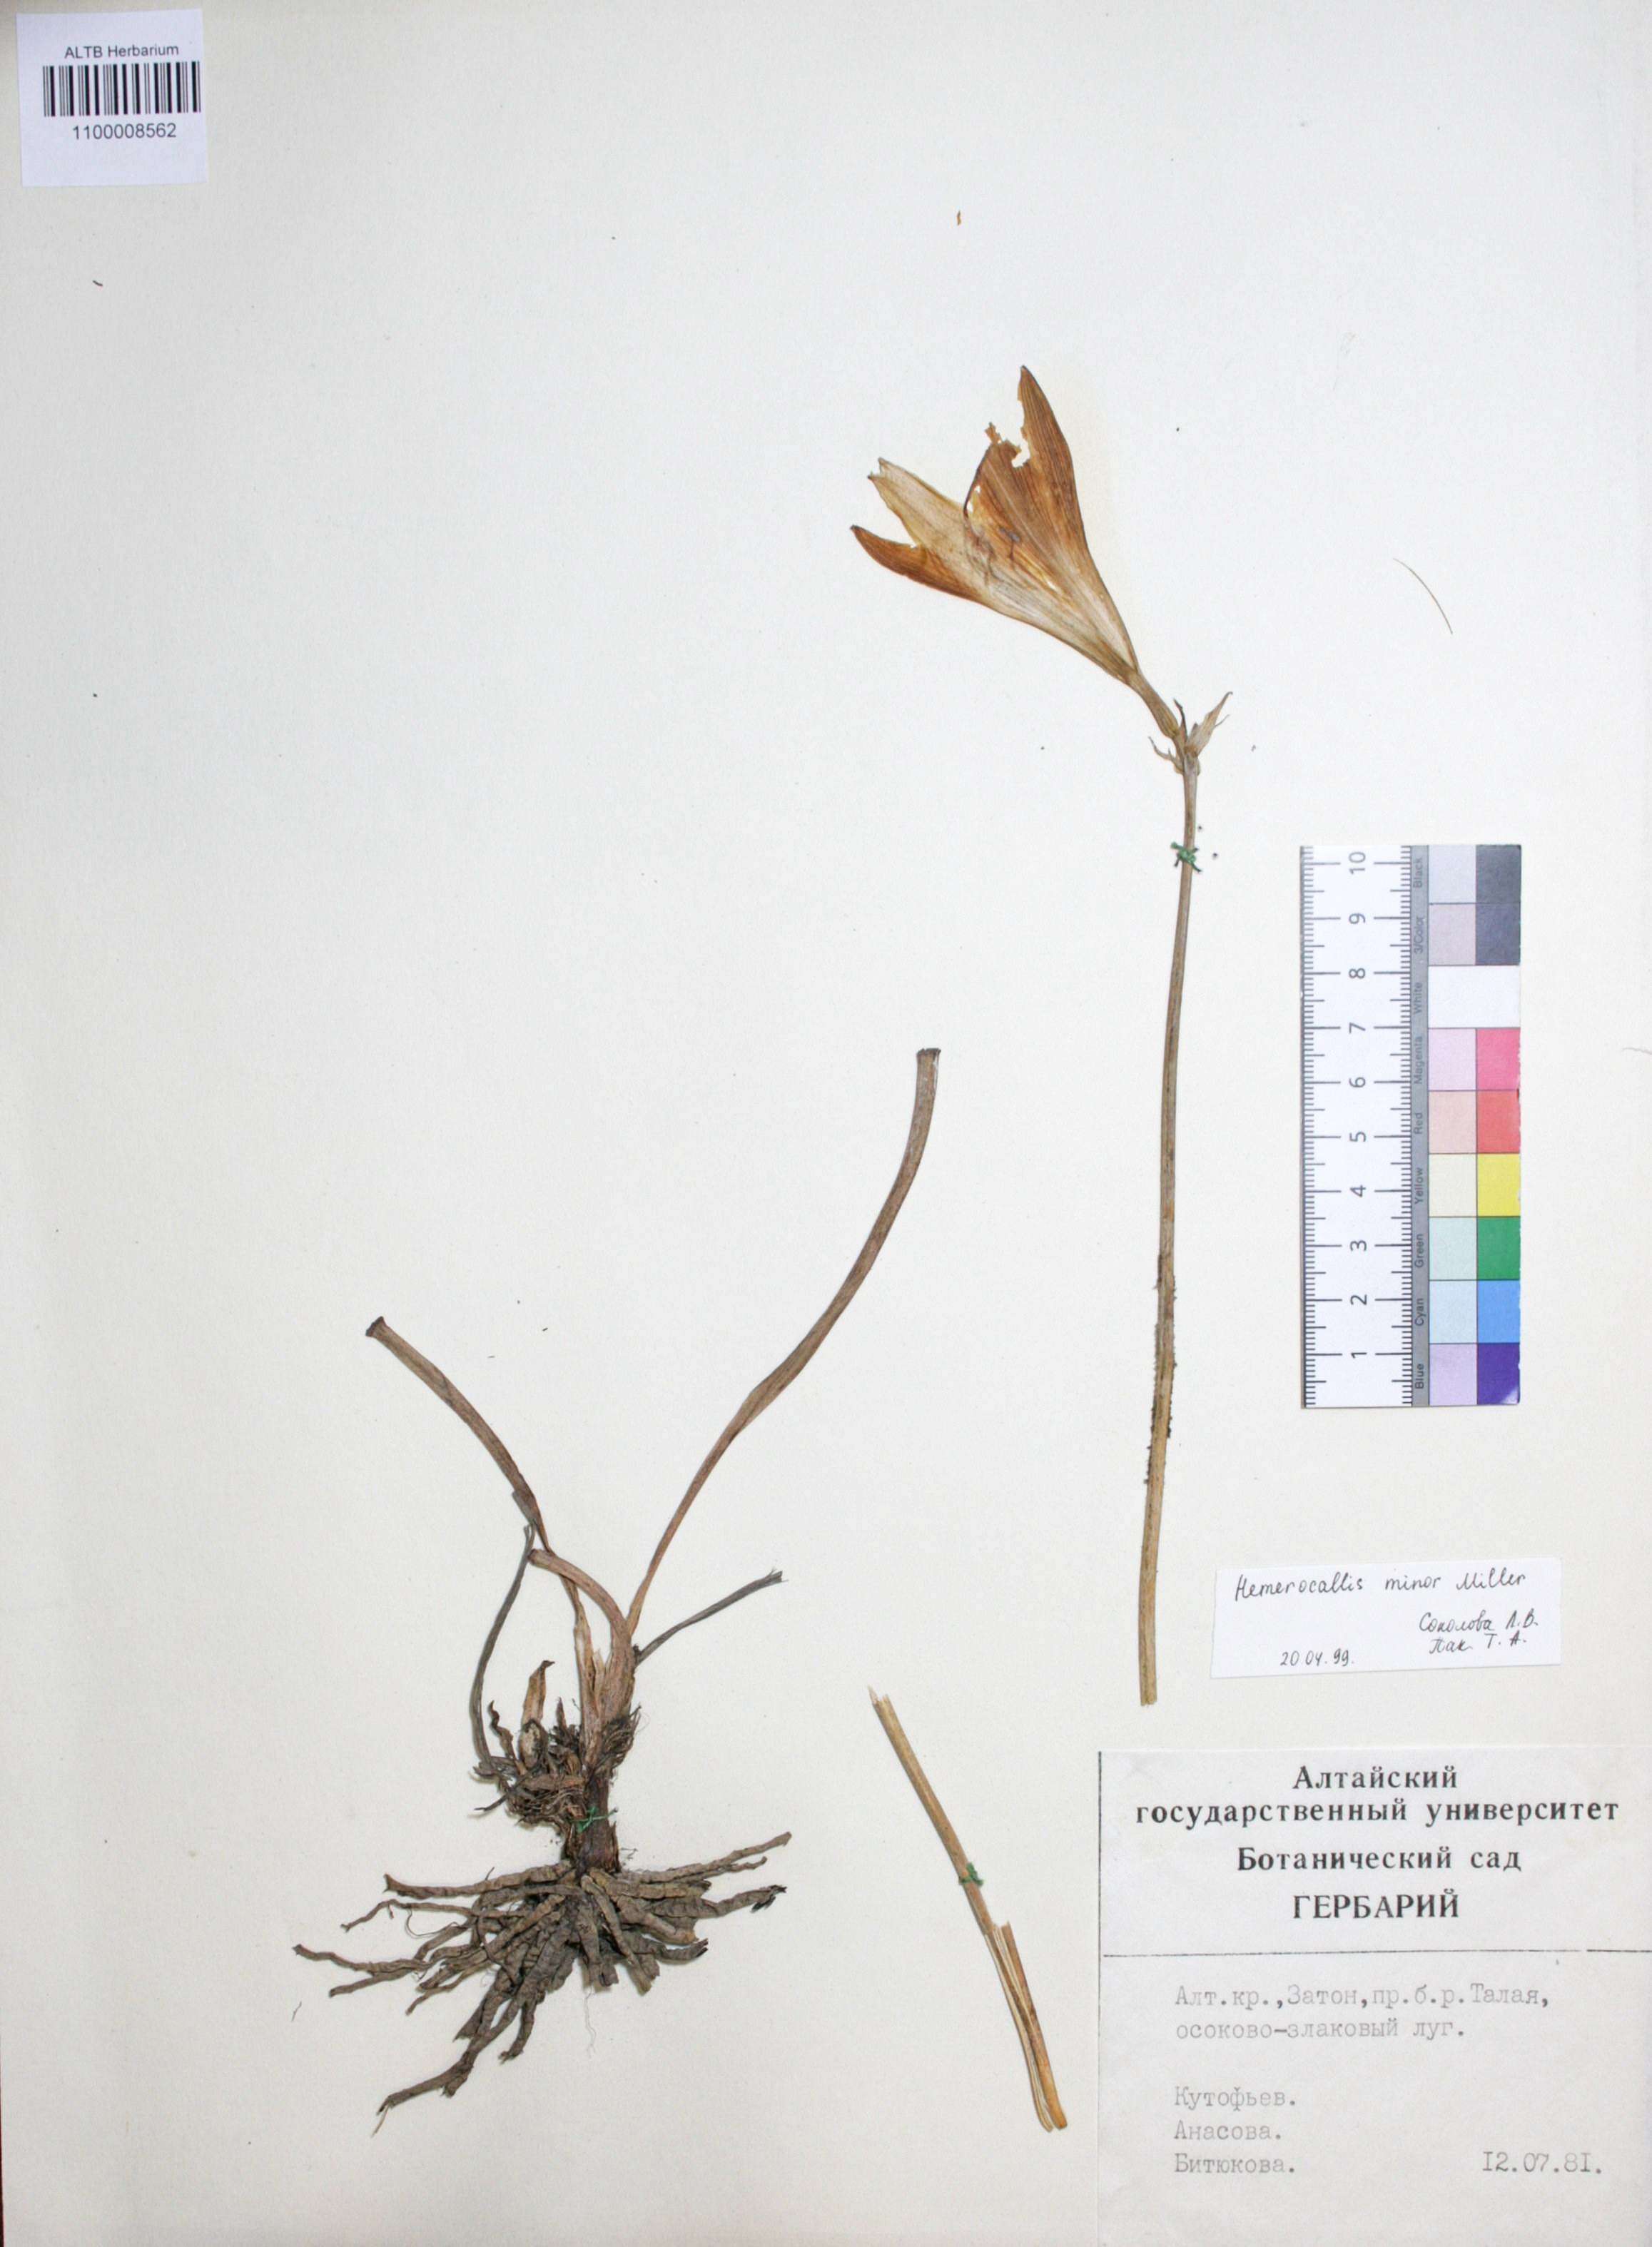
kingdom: Plantae
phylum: Tracheophyta
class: Liliopsida
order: Asparagales
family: Asphodelaceae
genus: Hemerocallis
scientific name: Hemerocallis minor
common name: Small daylily
